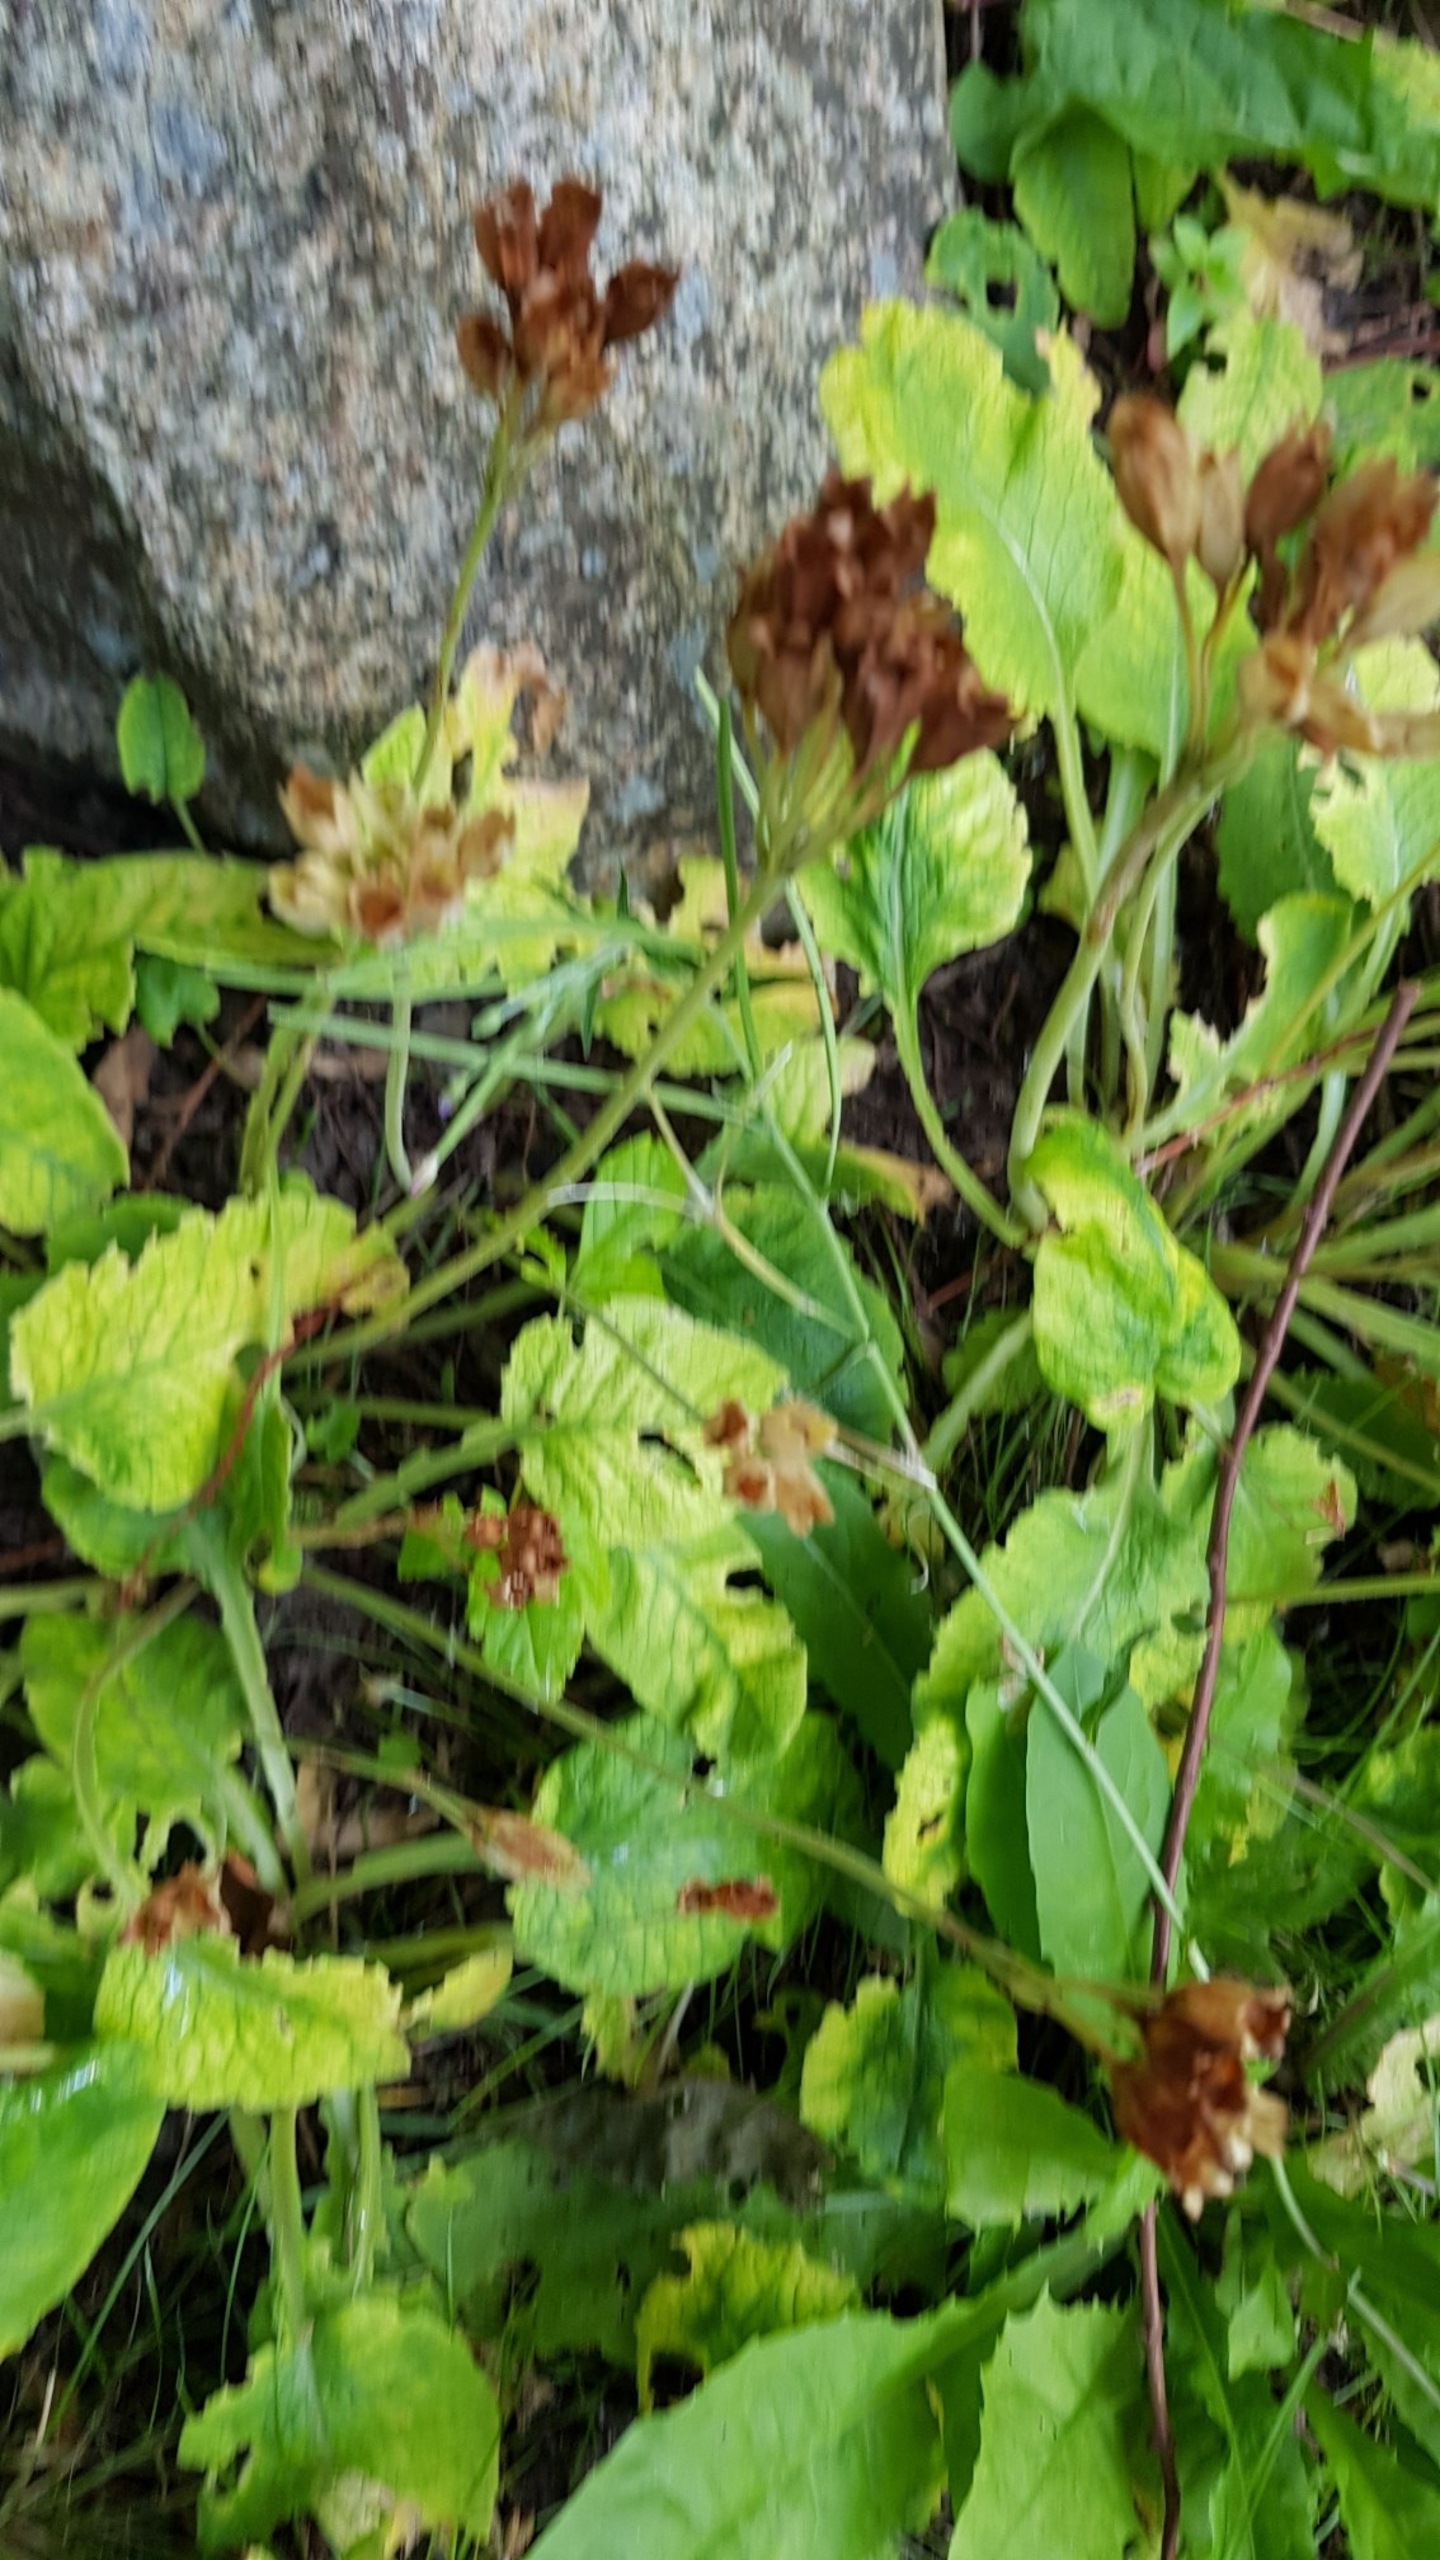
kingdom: Plantae
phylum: Tracheophyta
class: Magnoliopsida
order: Ericales
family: Primulaceae
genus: Primula
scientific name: Primula veris
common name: Hulkravet kodriver
